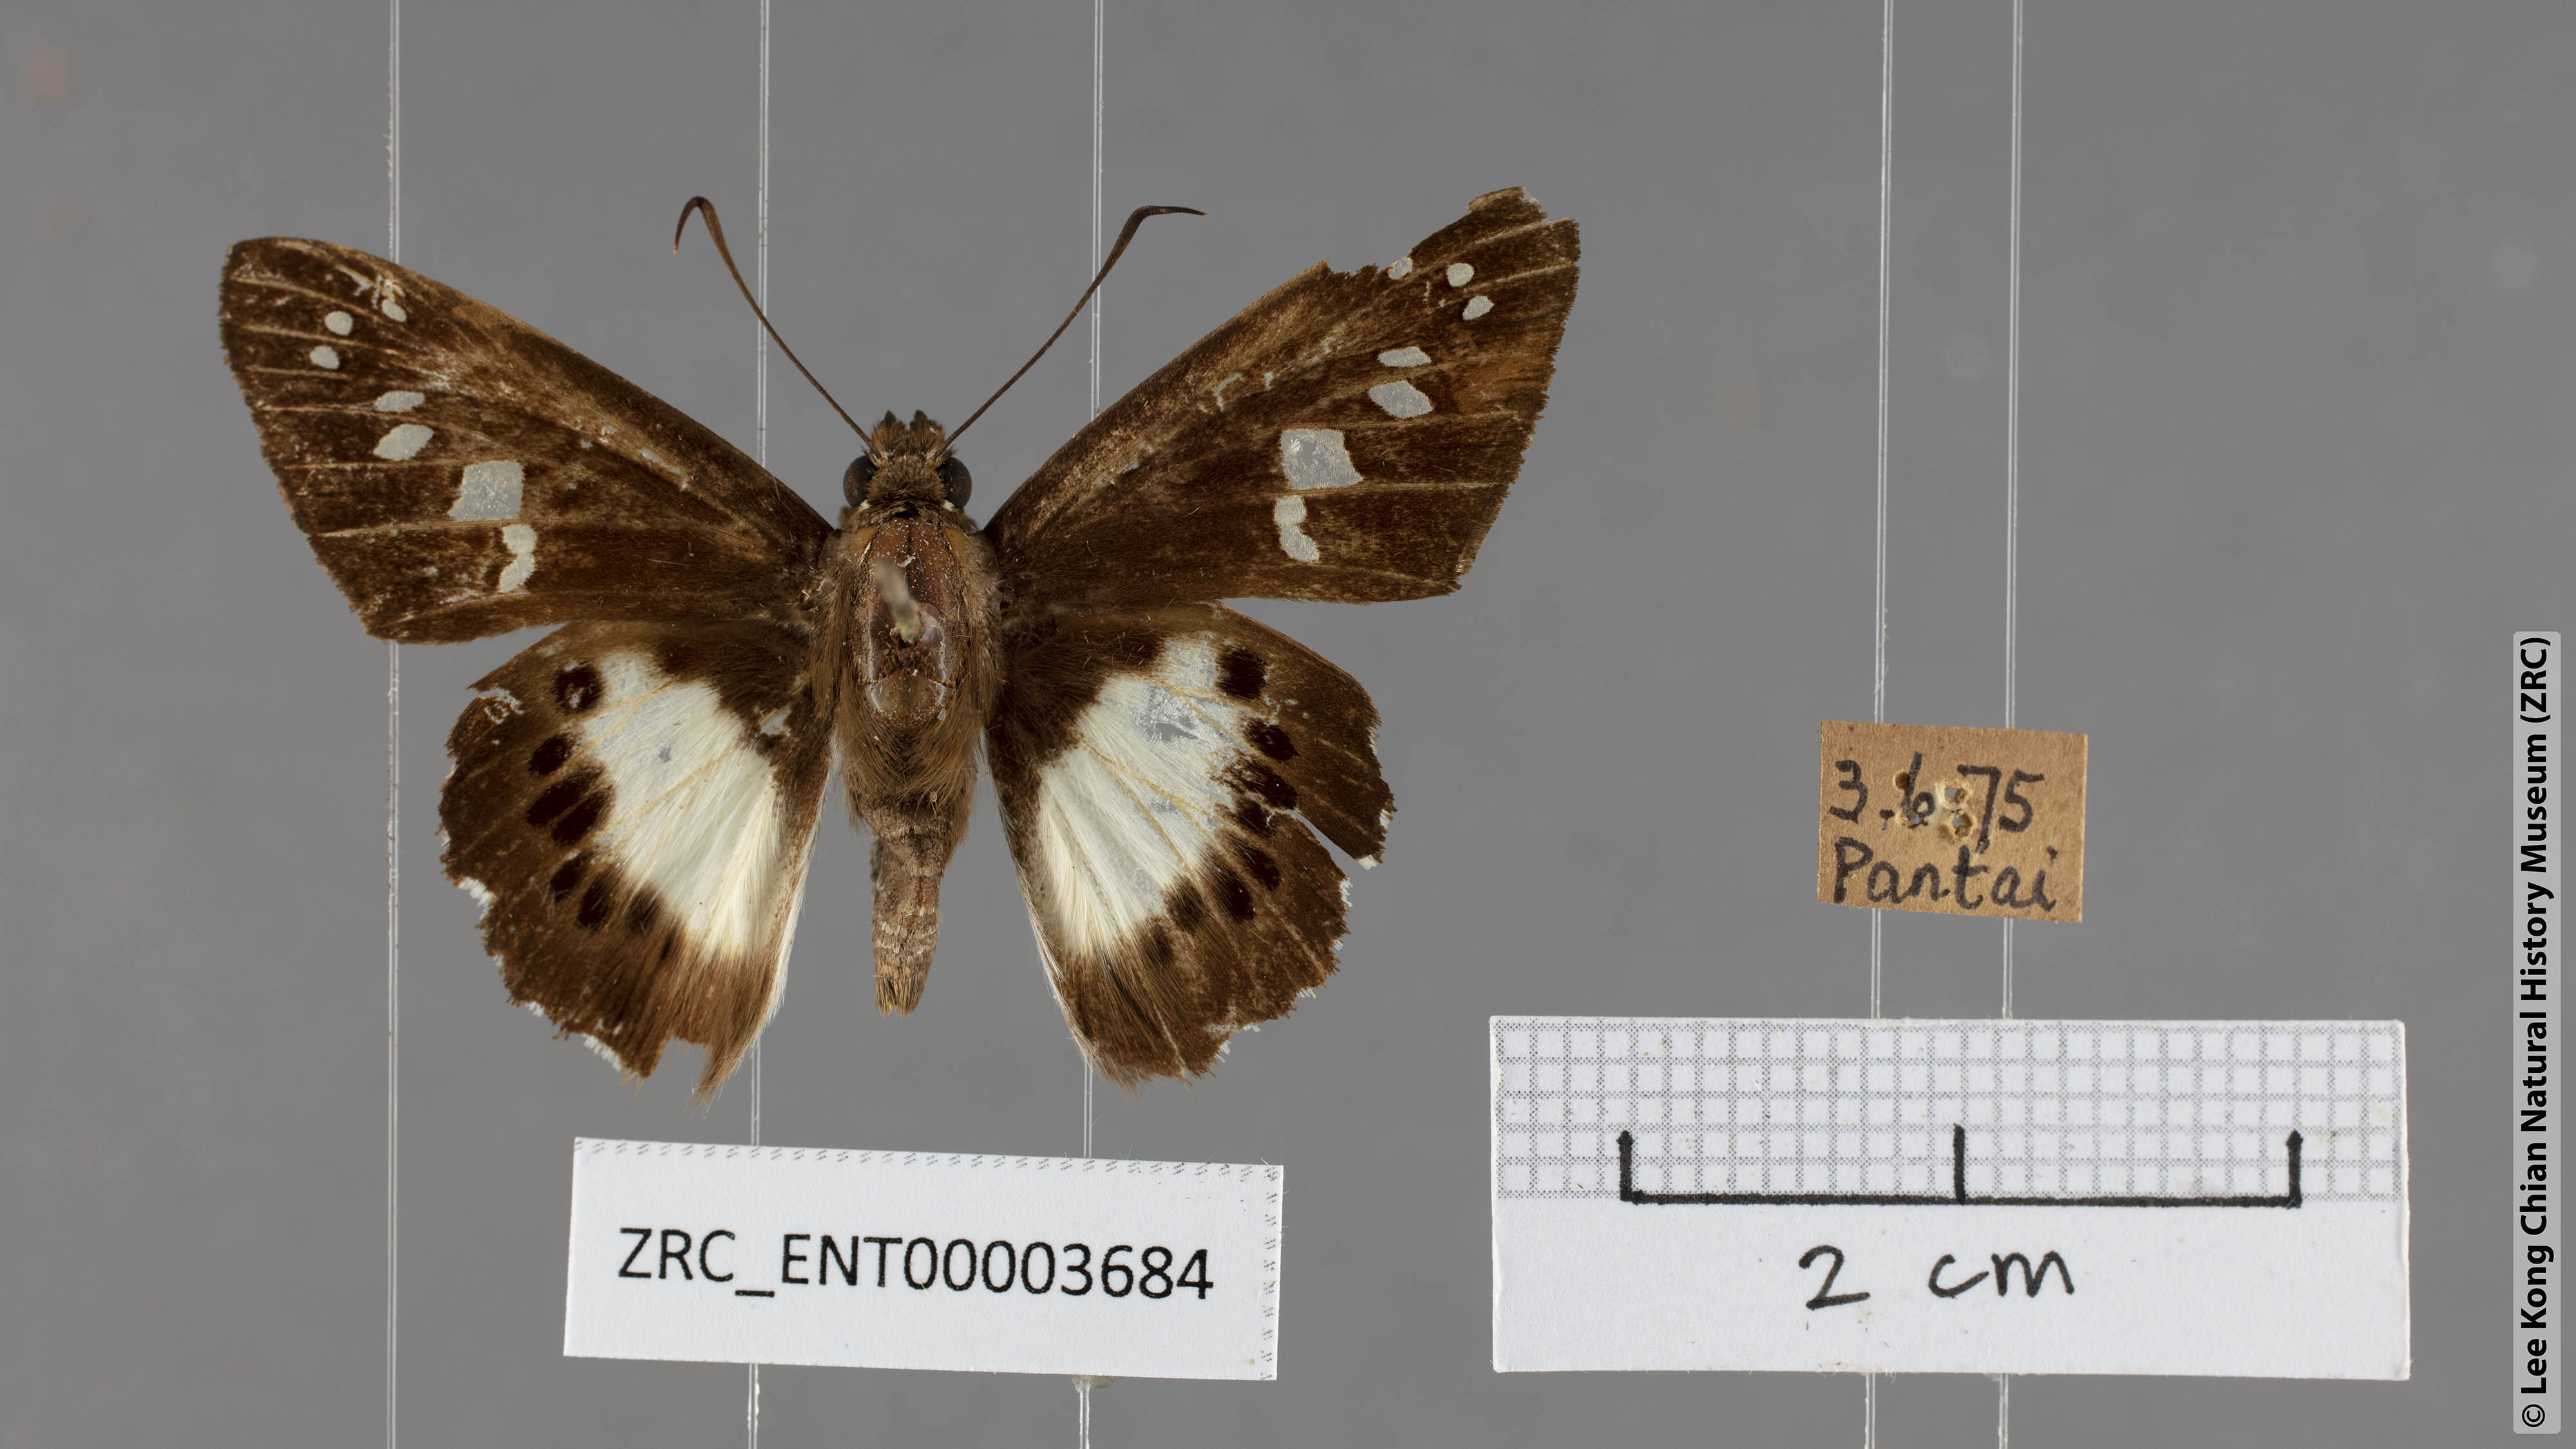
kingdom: Animalia
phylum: Arthropoda
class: Insecta
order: Lepidoptera
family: Hesperiidae
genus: Seseria
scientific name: Seseria affinis
